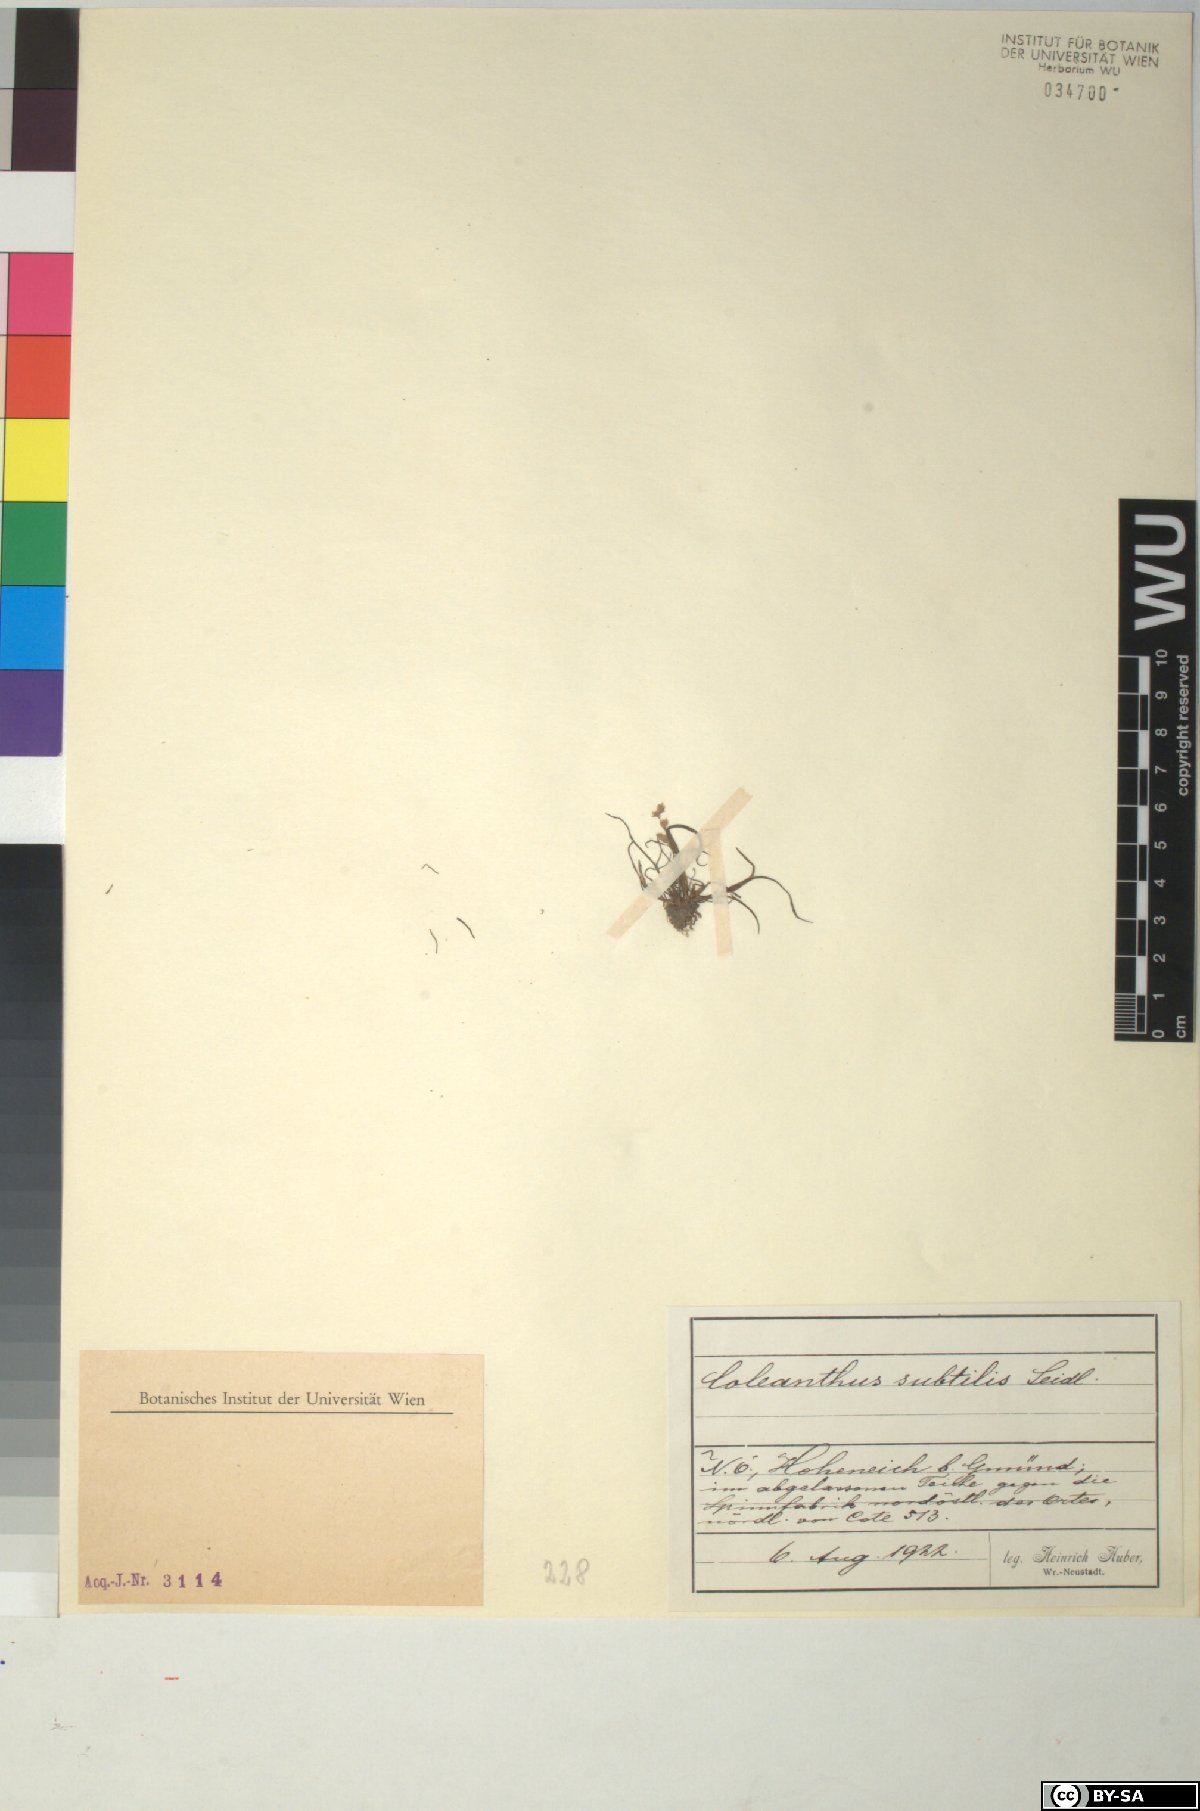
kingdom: Plantae
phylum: Tracheophyta
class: Liliopsida
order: Poales
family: Poaceae
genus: Coleanthus
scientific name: Coleanthus subtilis
